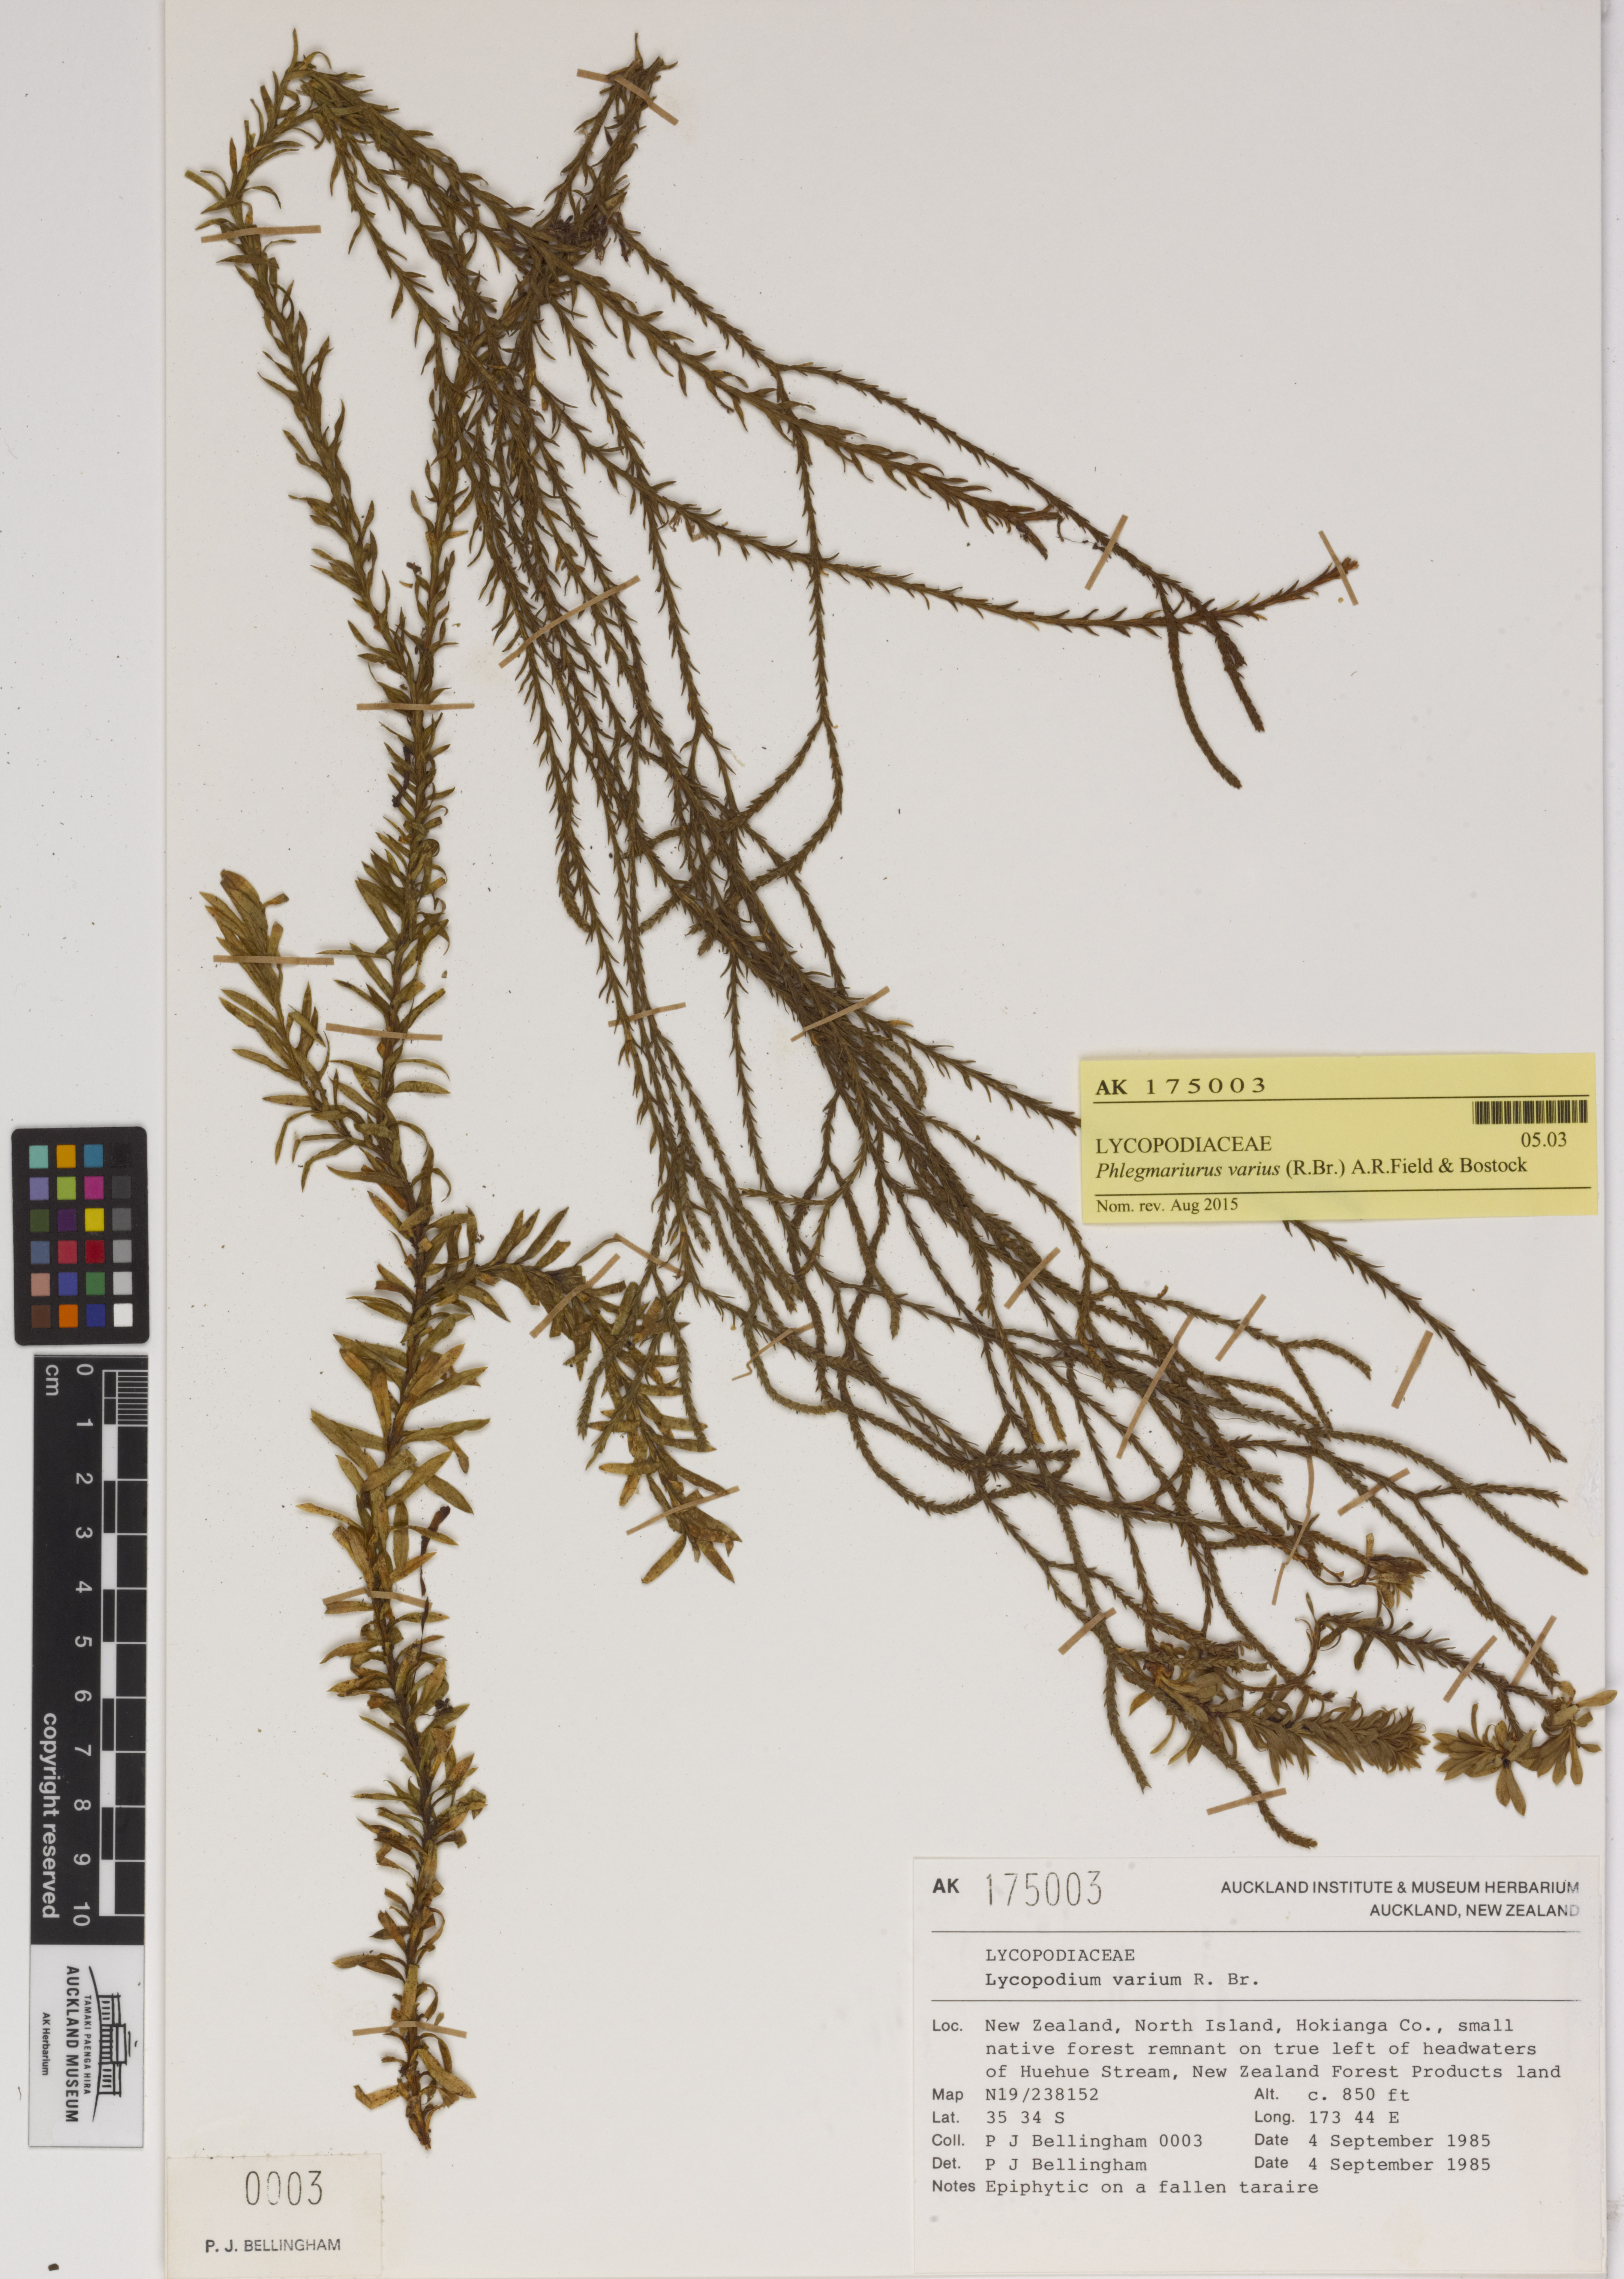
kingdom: Plantae
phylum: Tracheophyta
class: Lycopodiopsida
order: Lycopodiales
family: Lycopodiaceae
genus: Phlegmariurus
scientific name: Phlegmariurus billardierei
